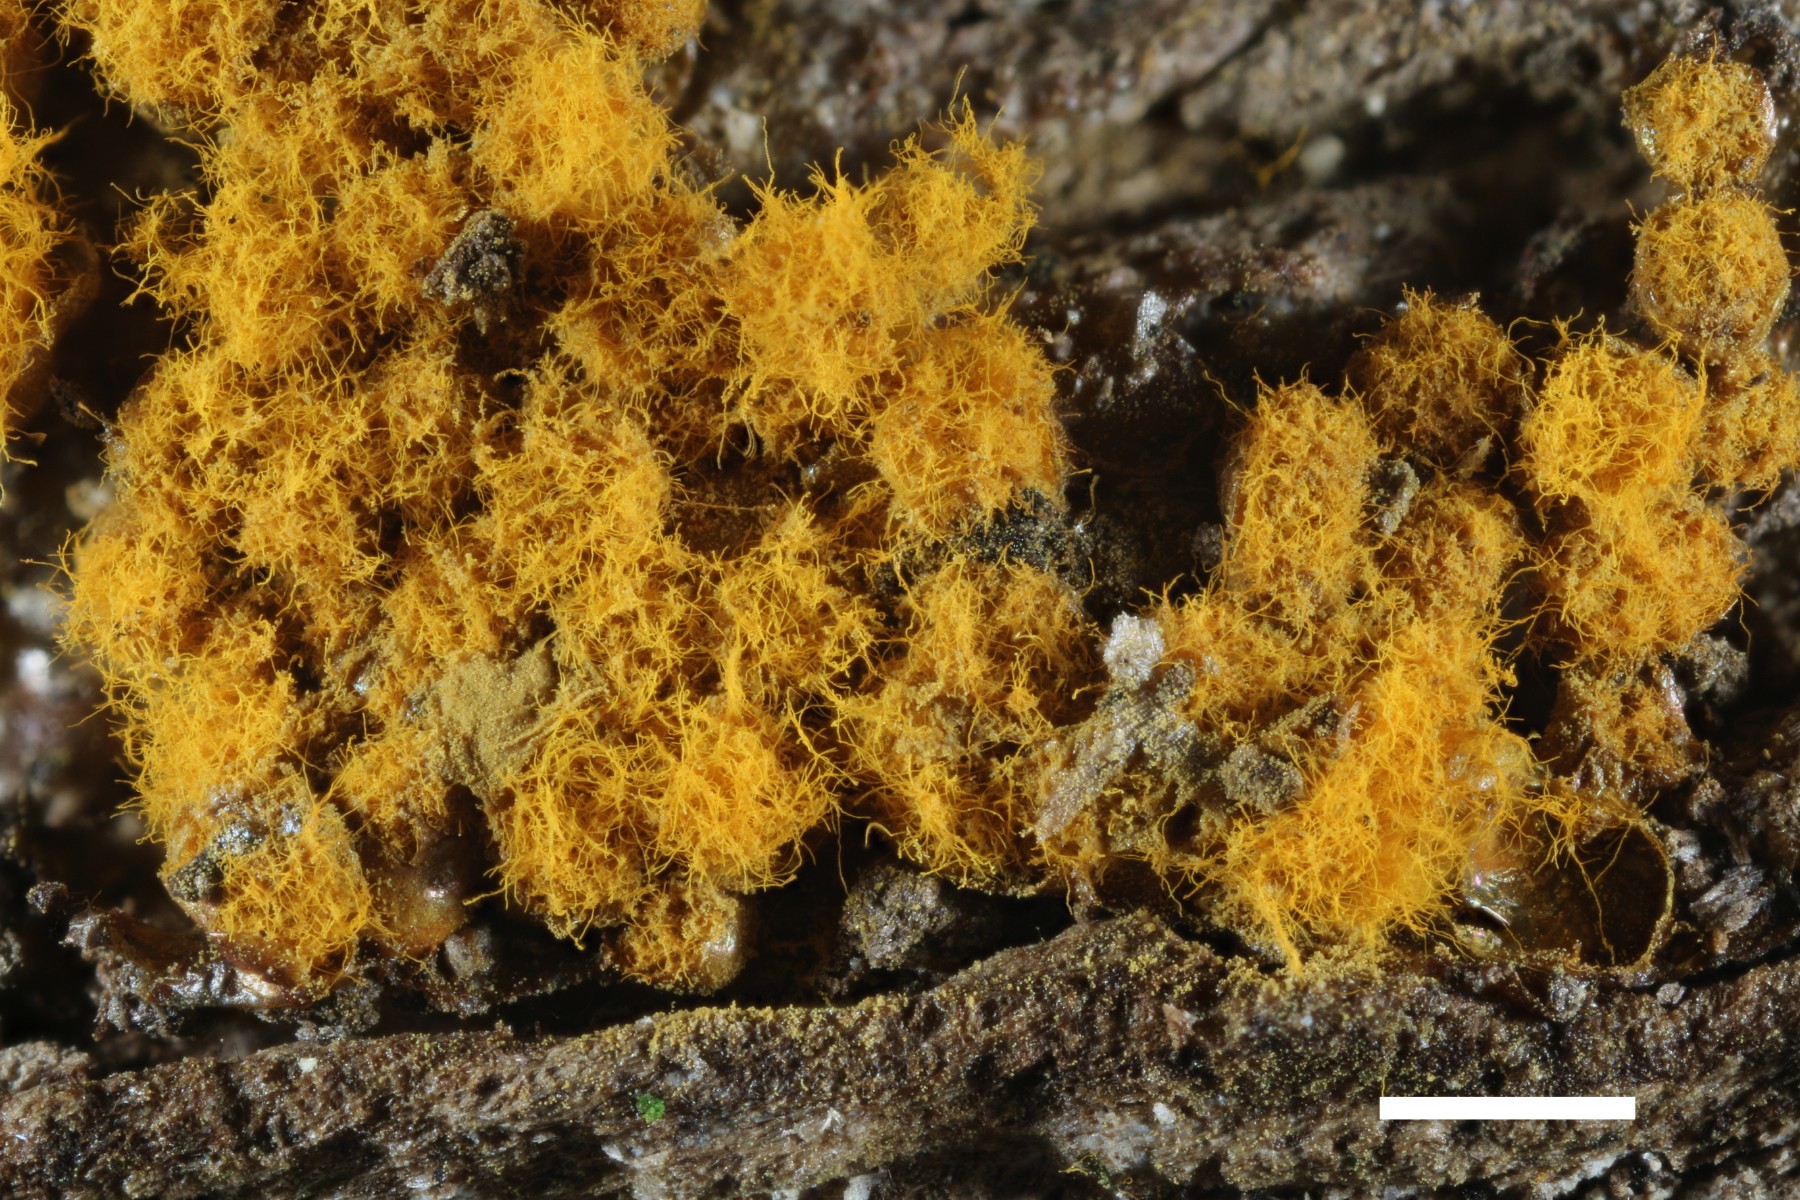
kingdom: Protozoa
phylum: Mycetozoa
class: Myxomycetes
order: Trichiales
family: Trichiaceae
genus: Trichia
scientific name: Trichia scabra
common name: tæppe-hårbold
